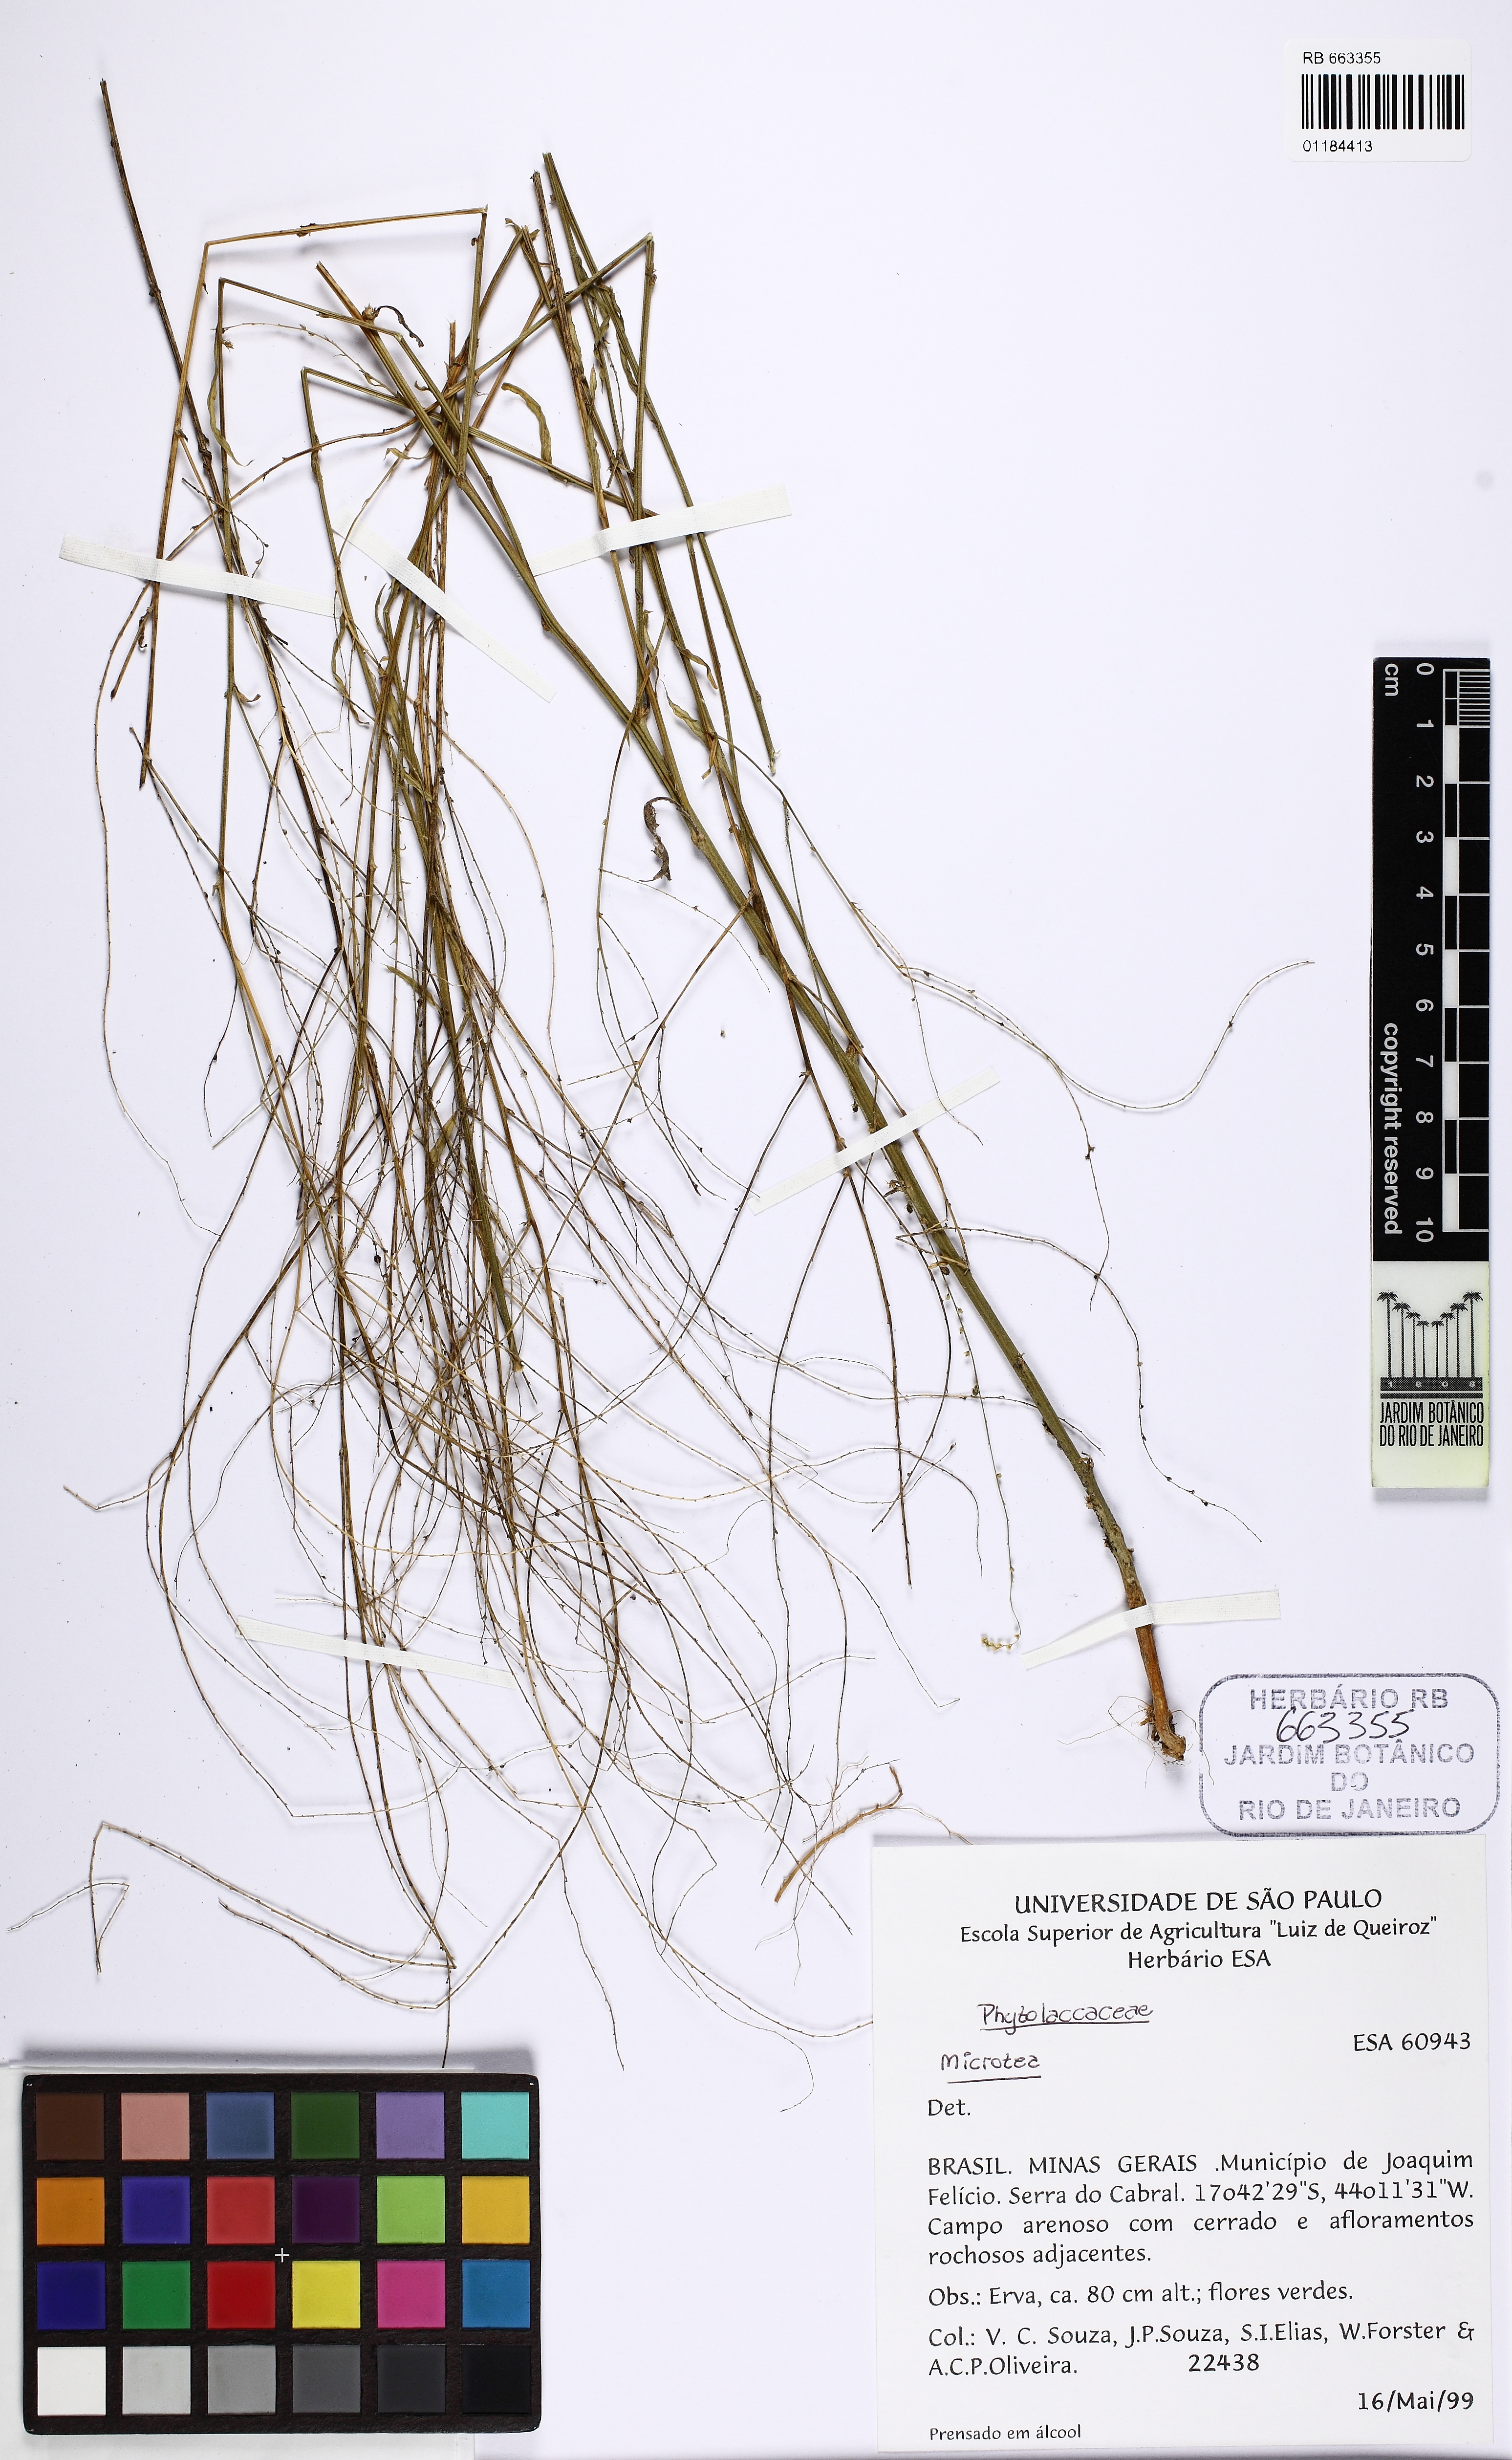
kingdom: Plantae
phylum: Tracheophyta
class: Magnoliopsida
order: Caryophyllales
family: Microteaceae
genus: Microtea
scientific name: Microtea
